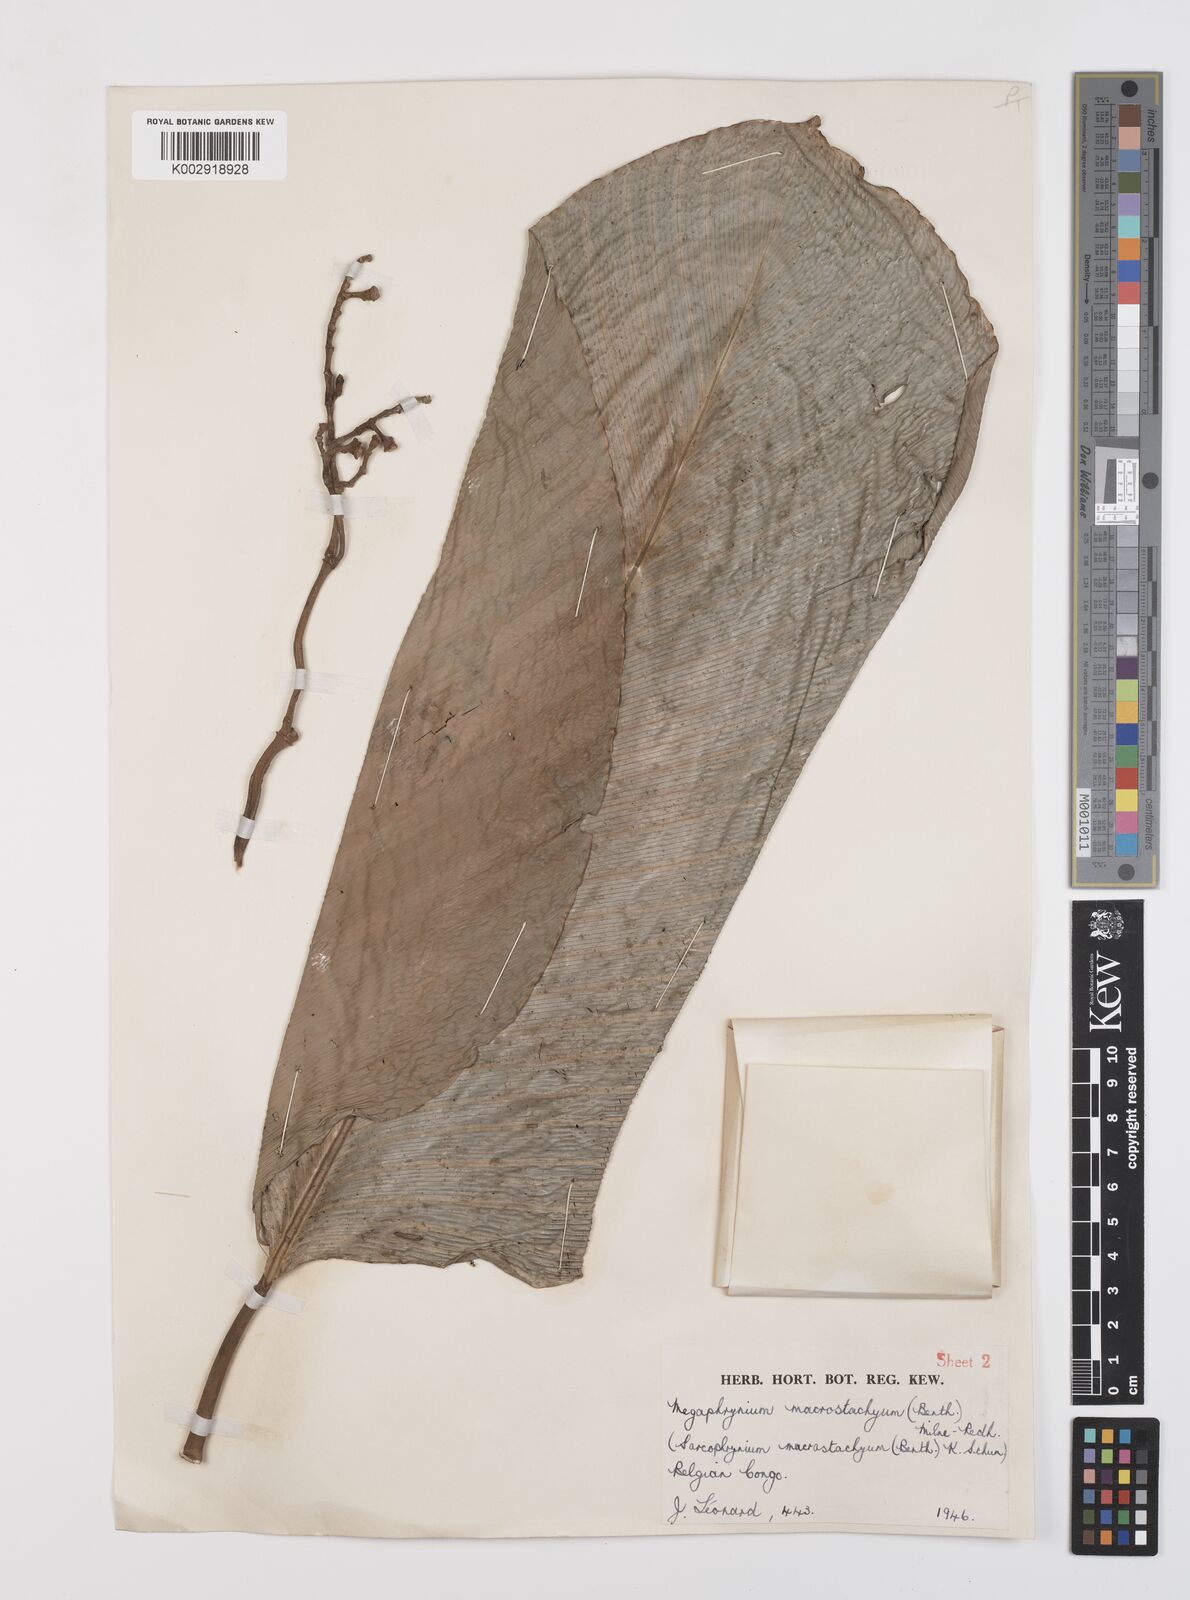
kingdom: Plantae
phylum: Tracheophyta
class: Liliopsida
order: Zingiberales
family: Marantaceae
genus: Megaphrynium
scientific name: Megaphrynium macrostachyum
